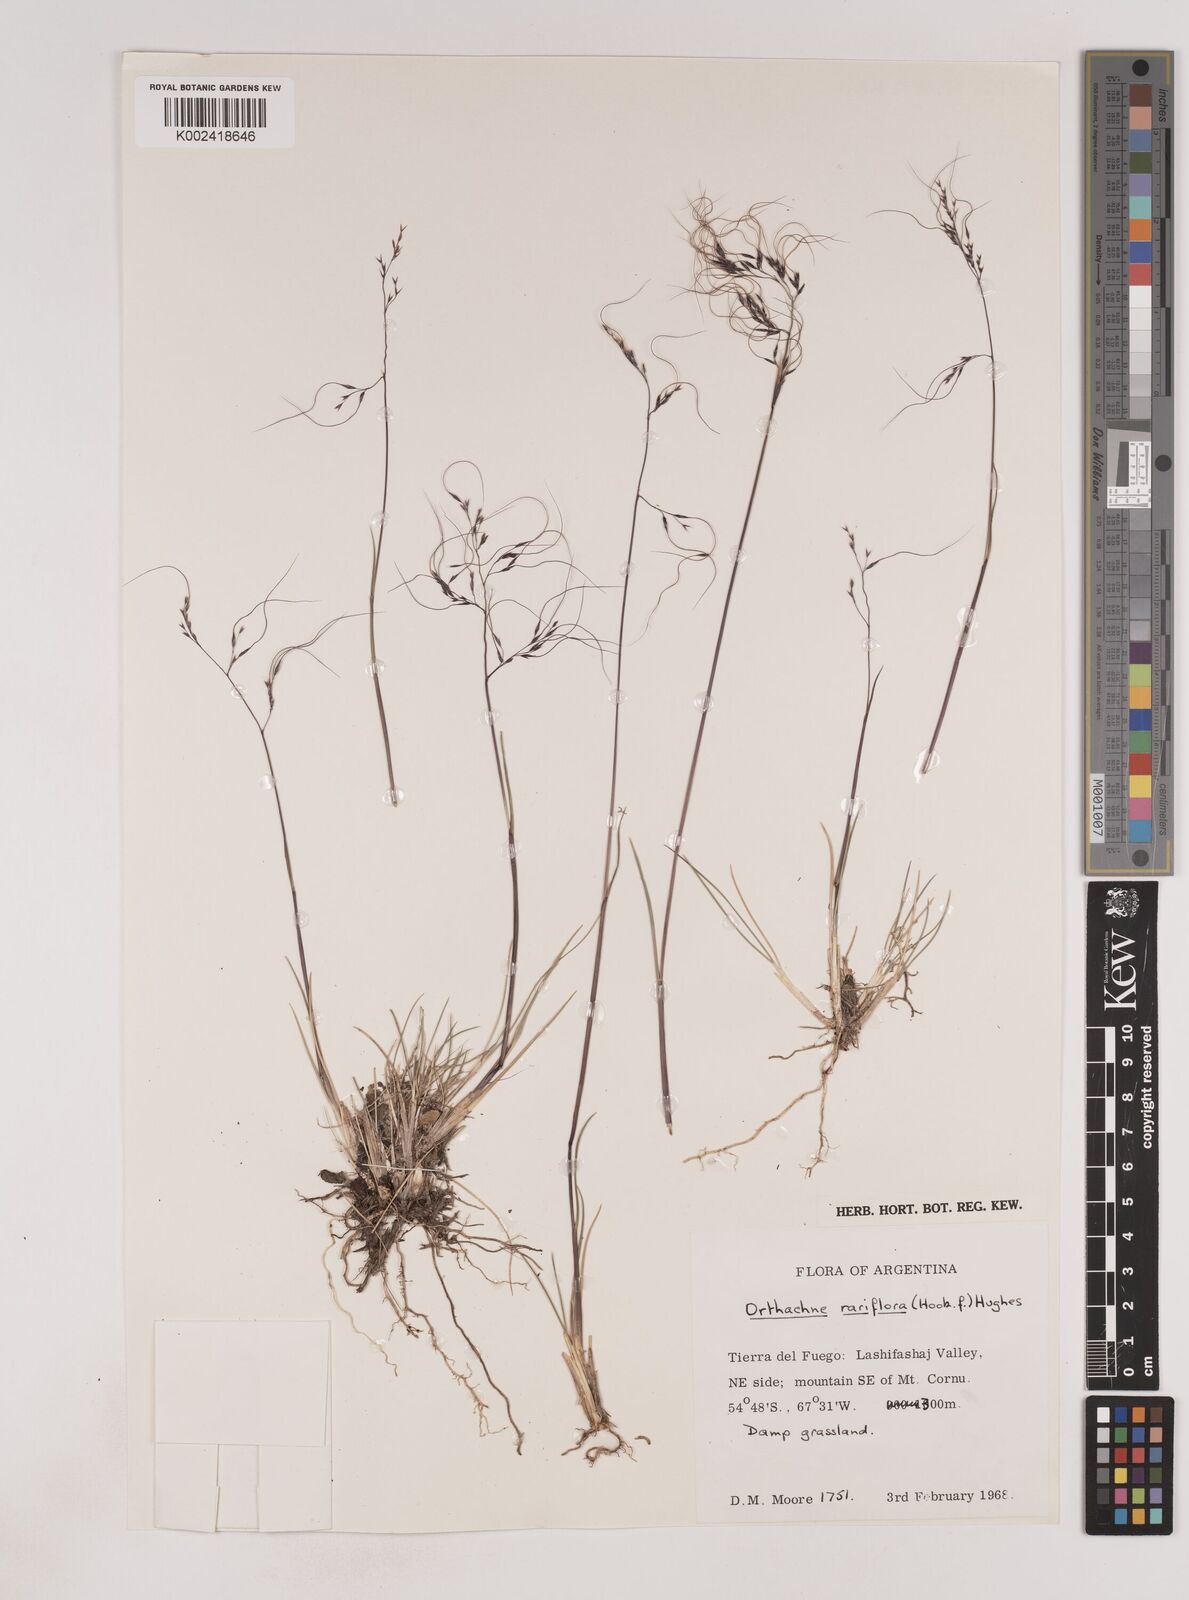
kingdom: Plantae
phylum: Tracheophyta
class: Liliopsida
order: Poales
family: Poaceae
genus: Ortachne
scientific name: Ortachne rariflora
